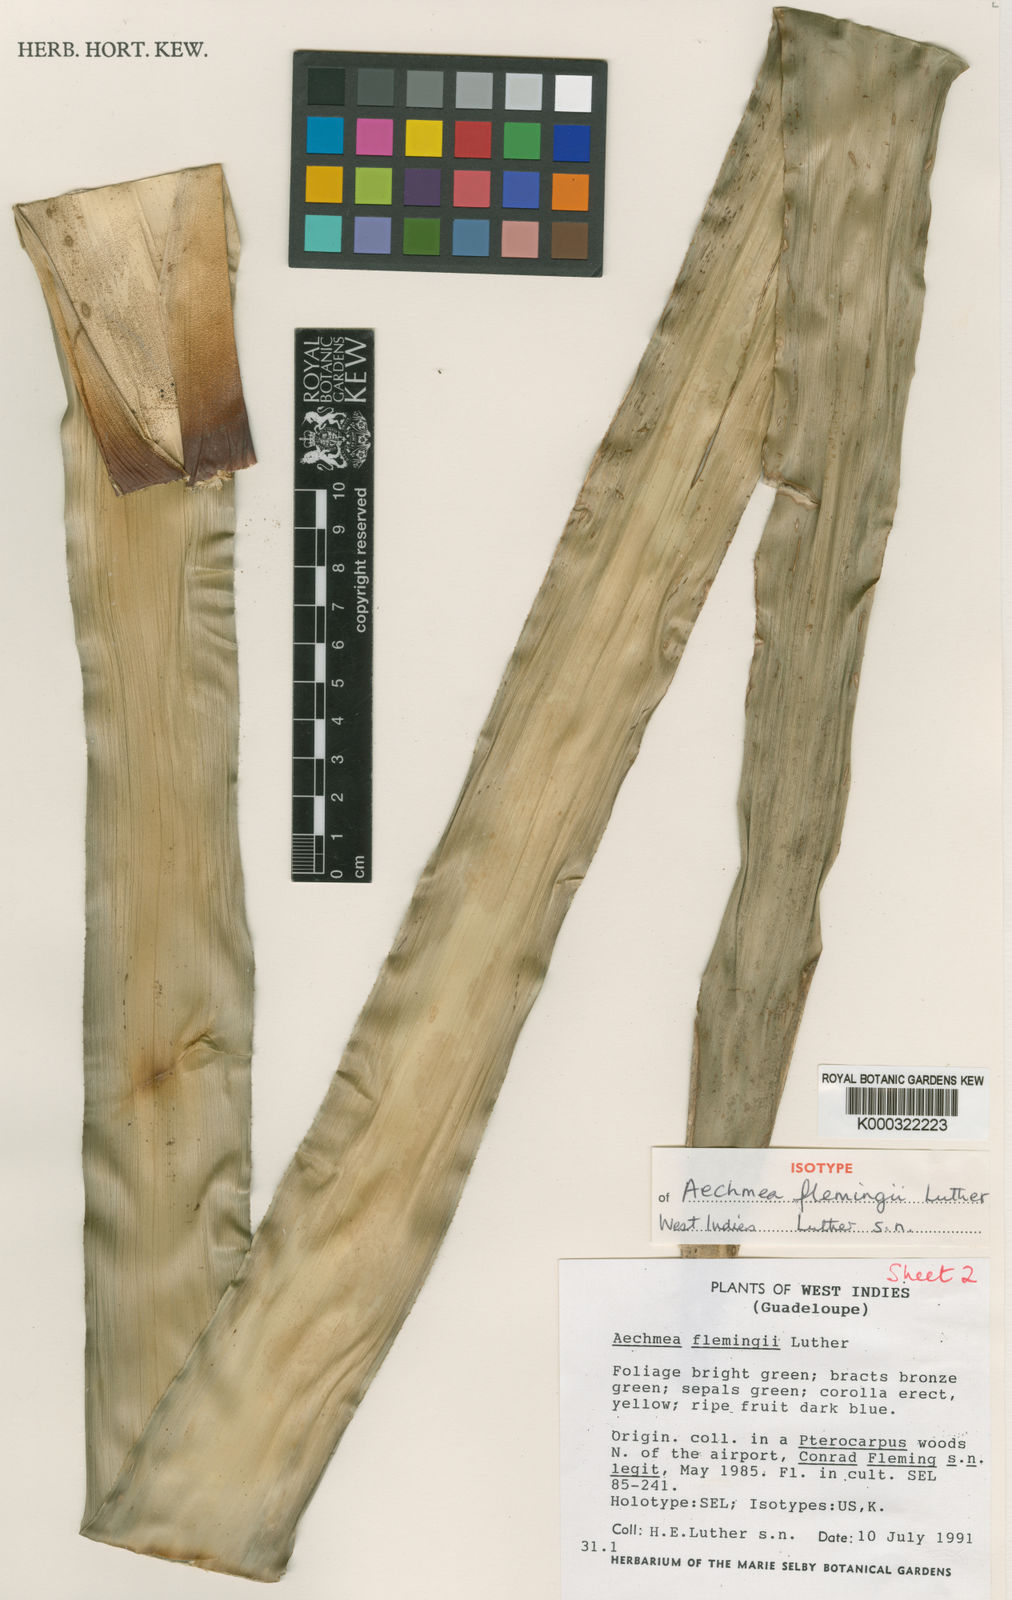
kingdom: Plantae
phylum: Tracheophyta
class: Liliopsida
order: Poales
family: Bromeliaceae
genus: Aechmea
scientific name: Aechmea flemingii
